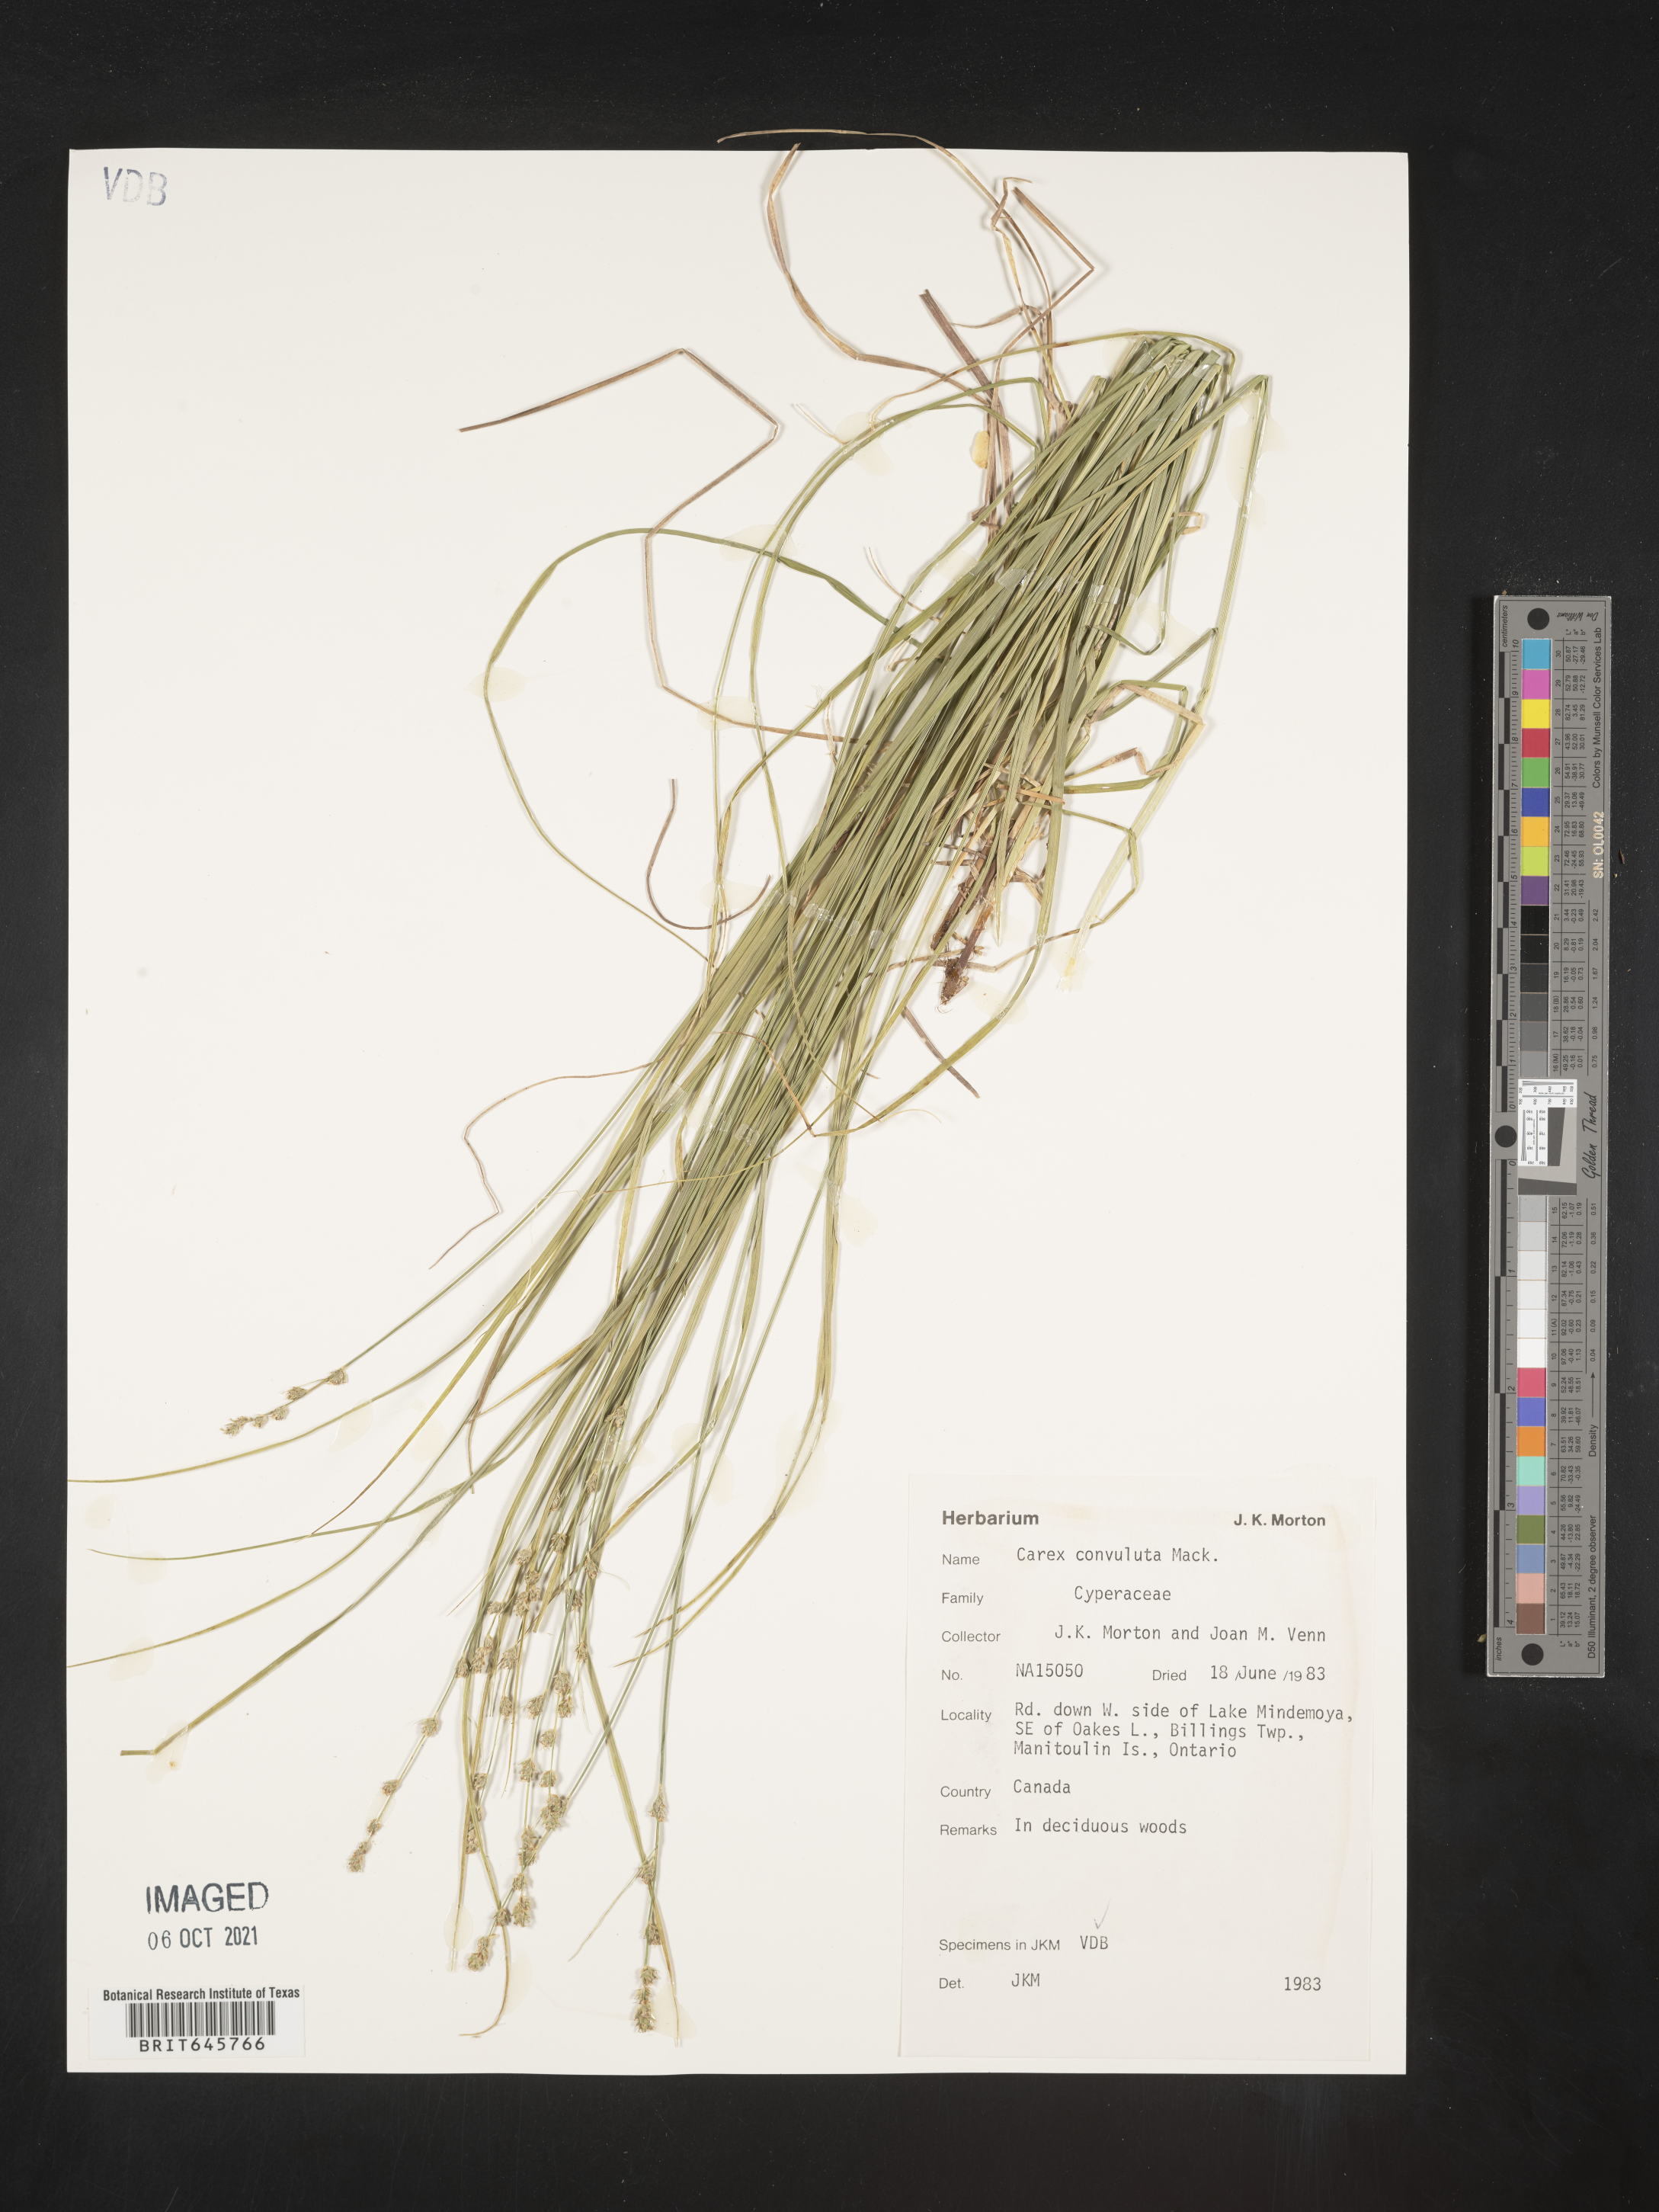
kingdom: Plantae
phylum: Tracheophyta
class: Liliopsida
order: Poales
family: Cyperaceae
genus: Carex
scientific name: Carex rosea
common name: Curly-styled wood sedge
